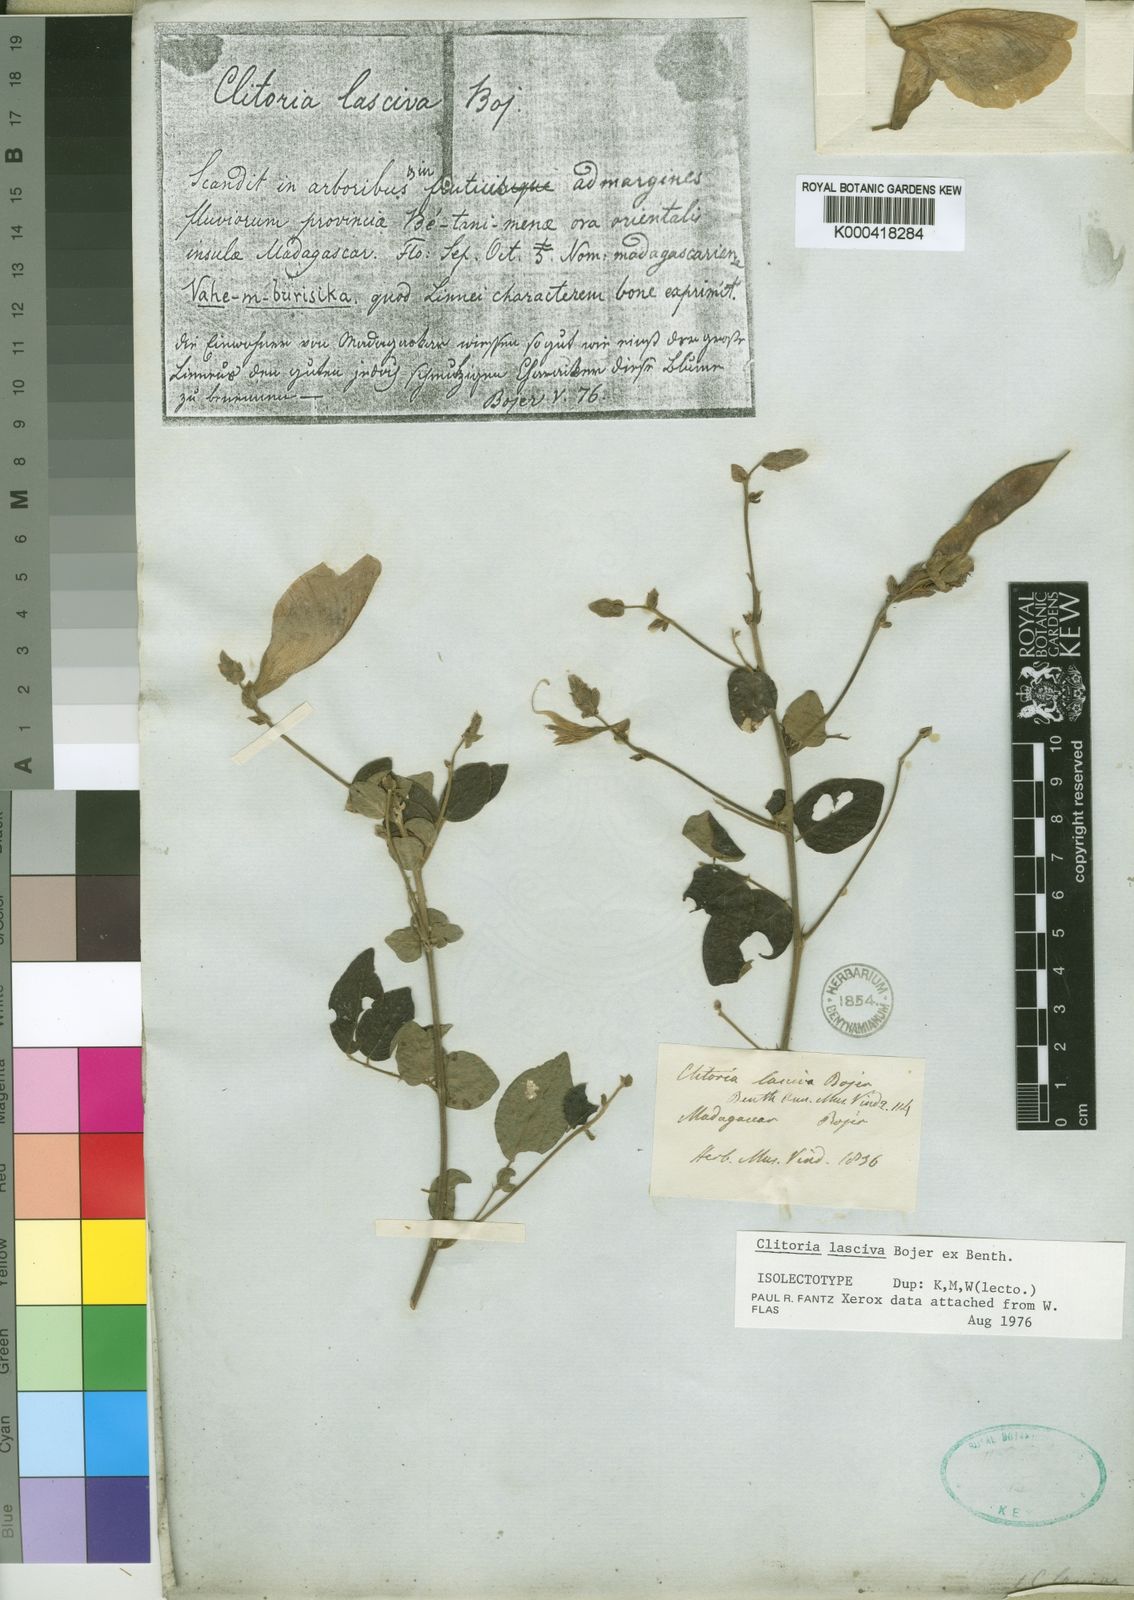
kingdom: Plantae
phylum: Tracheophyta
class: Magnoliopsida
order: Fabales
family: Fabaceae
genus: Clitoria
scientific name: Clitoria lasciva
